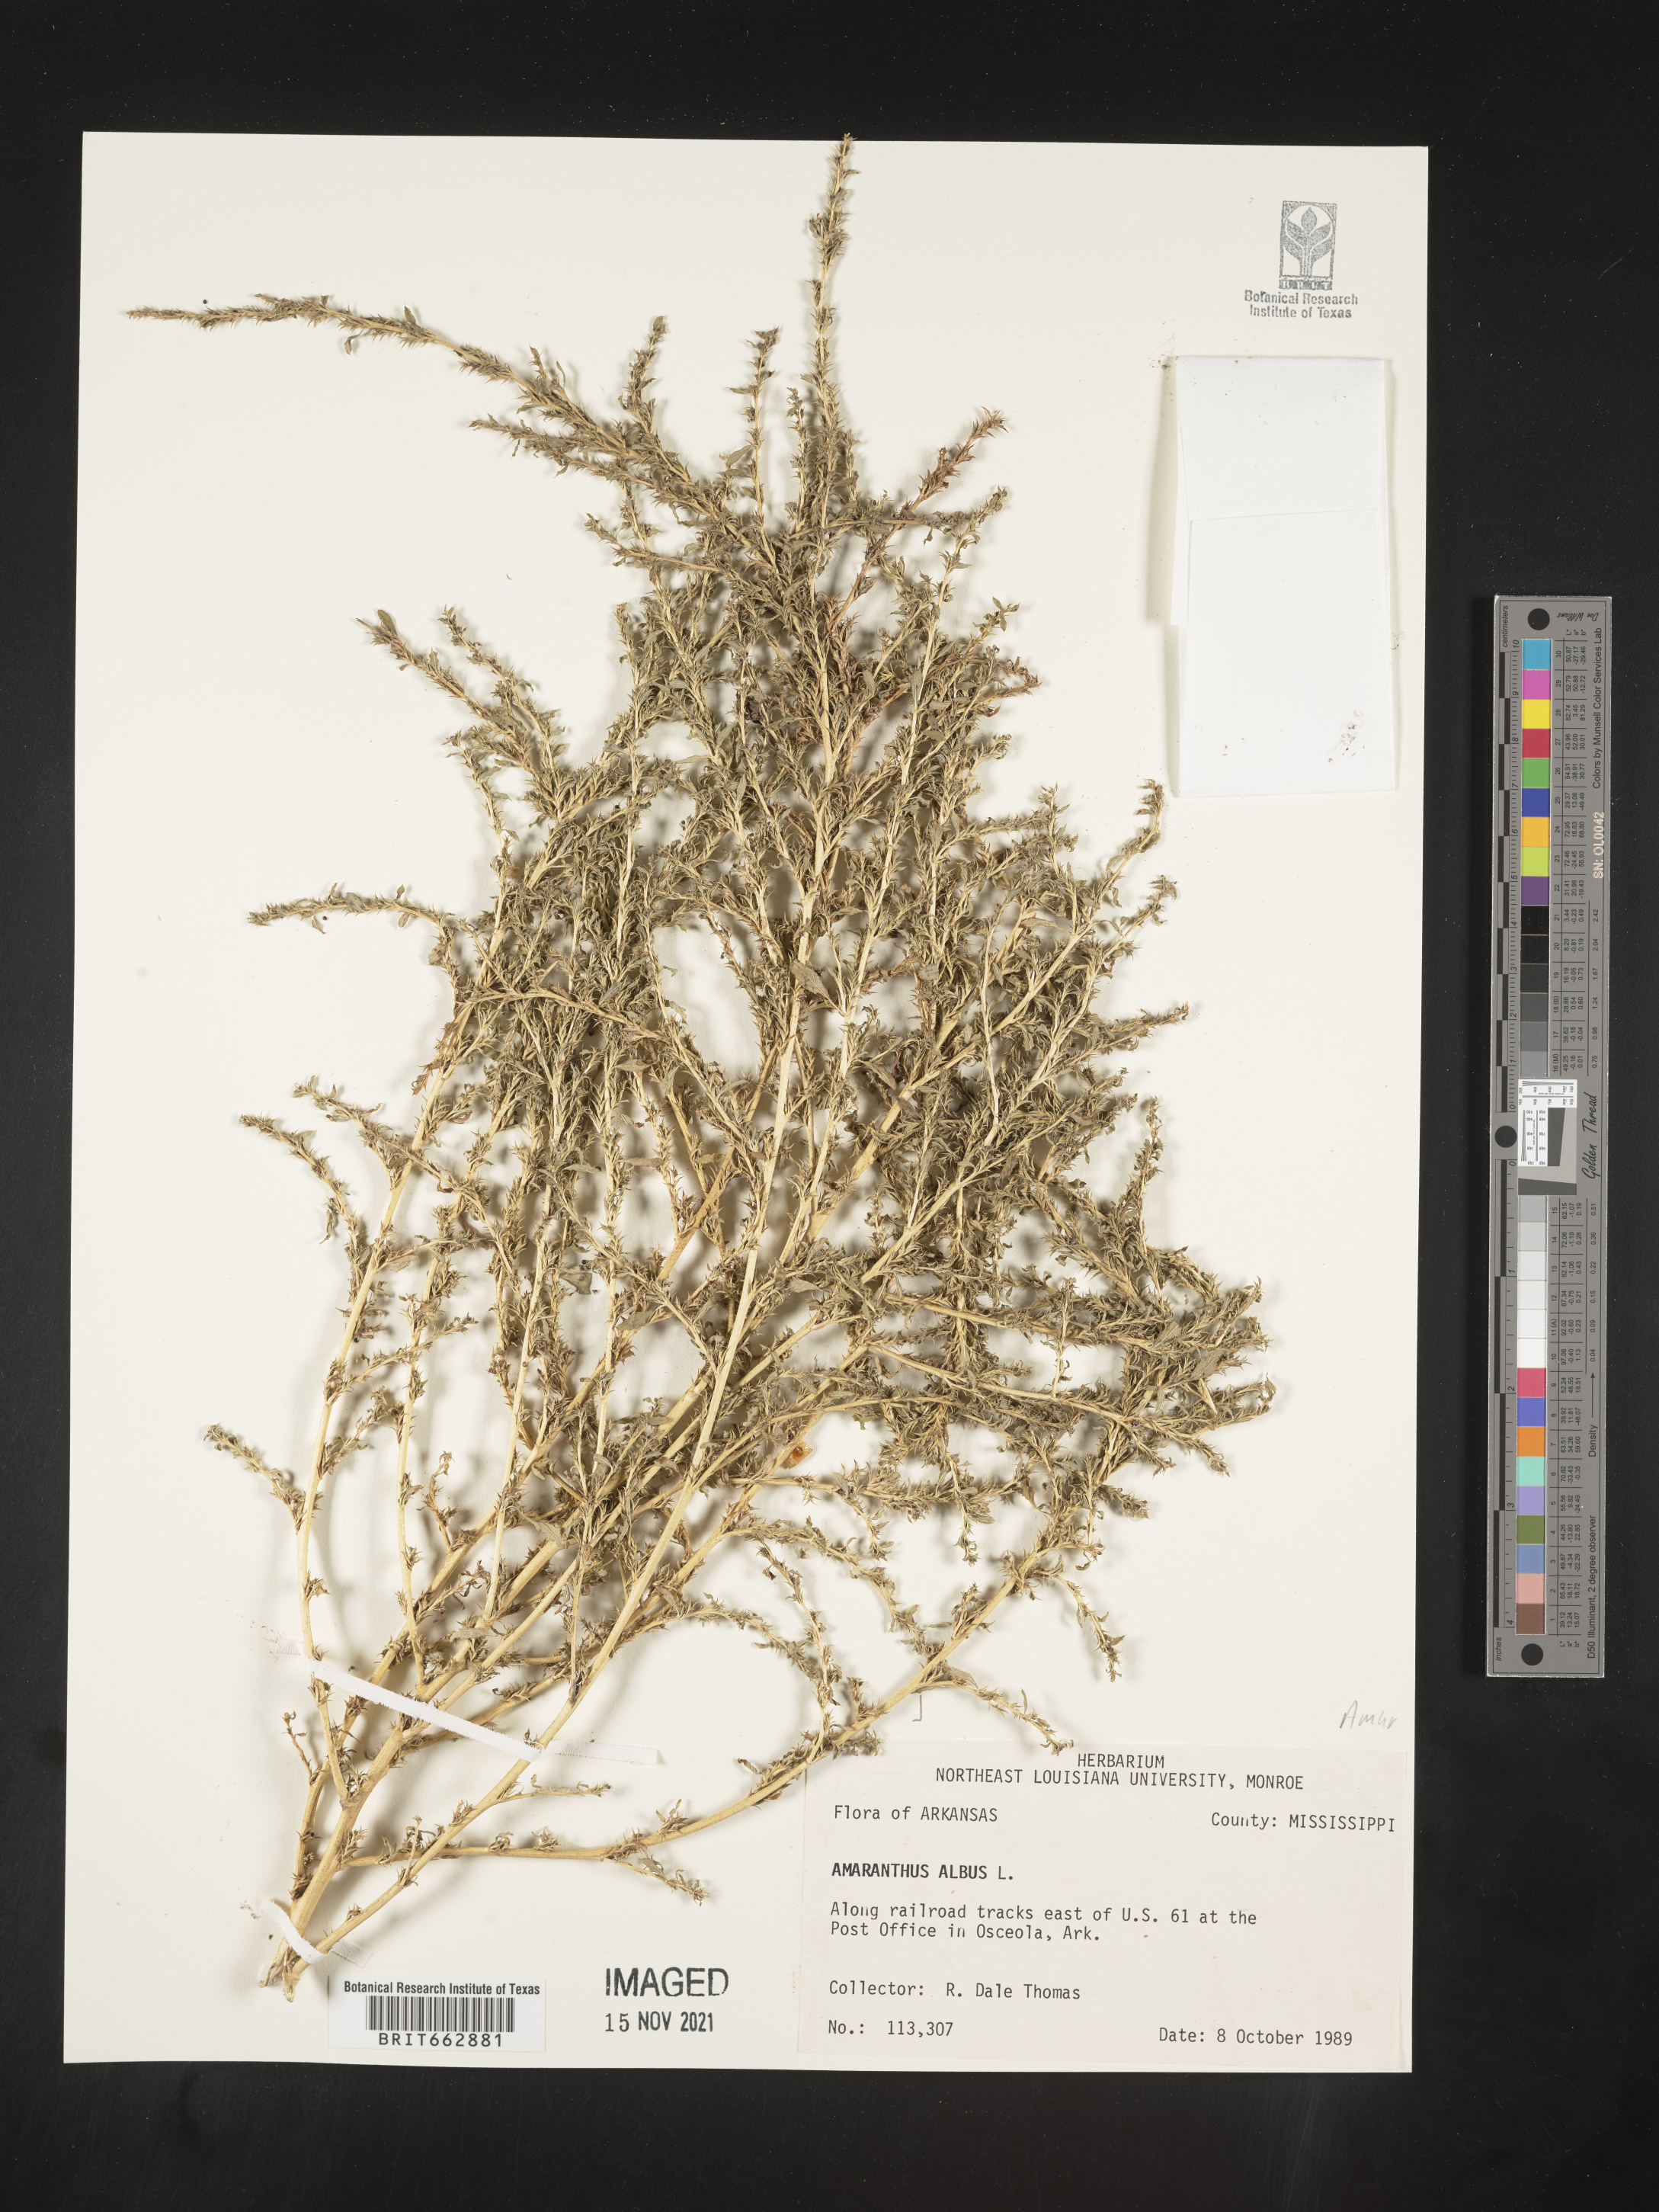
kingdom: Plantae
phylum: Tracheophyta
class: Magnoliopsida
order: Caryophyllales
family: Amaranthaceae
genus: Amaranthus
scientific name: Amaranthus albus
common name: White pigweed
